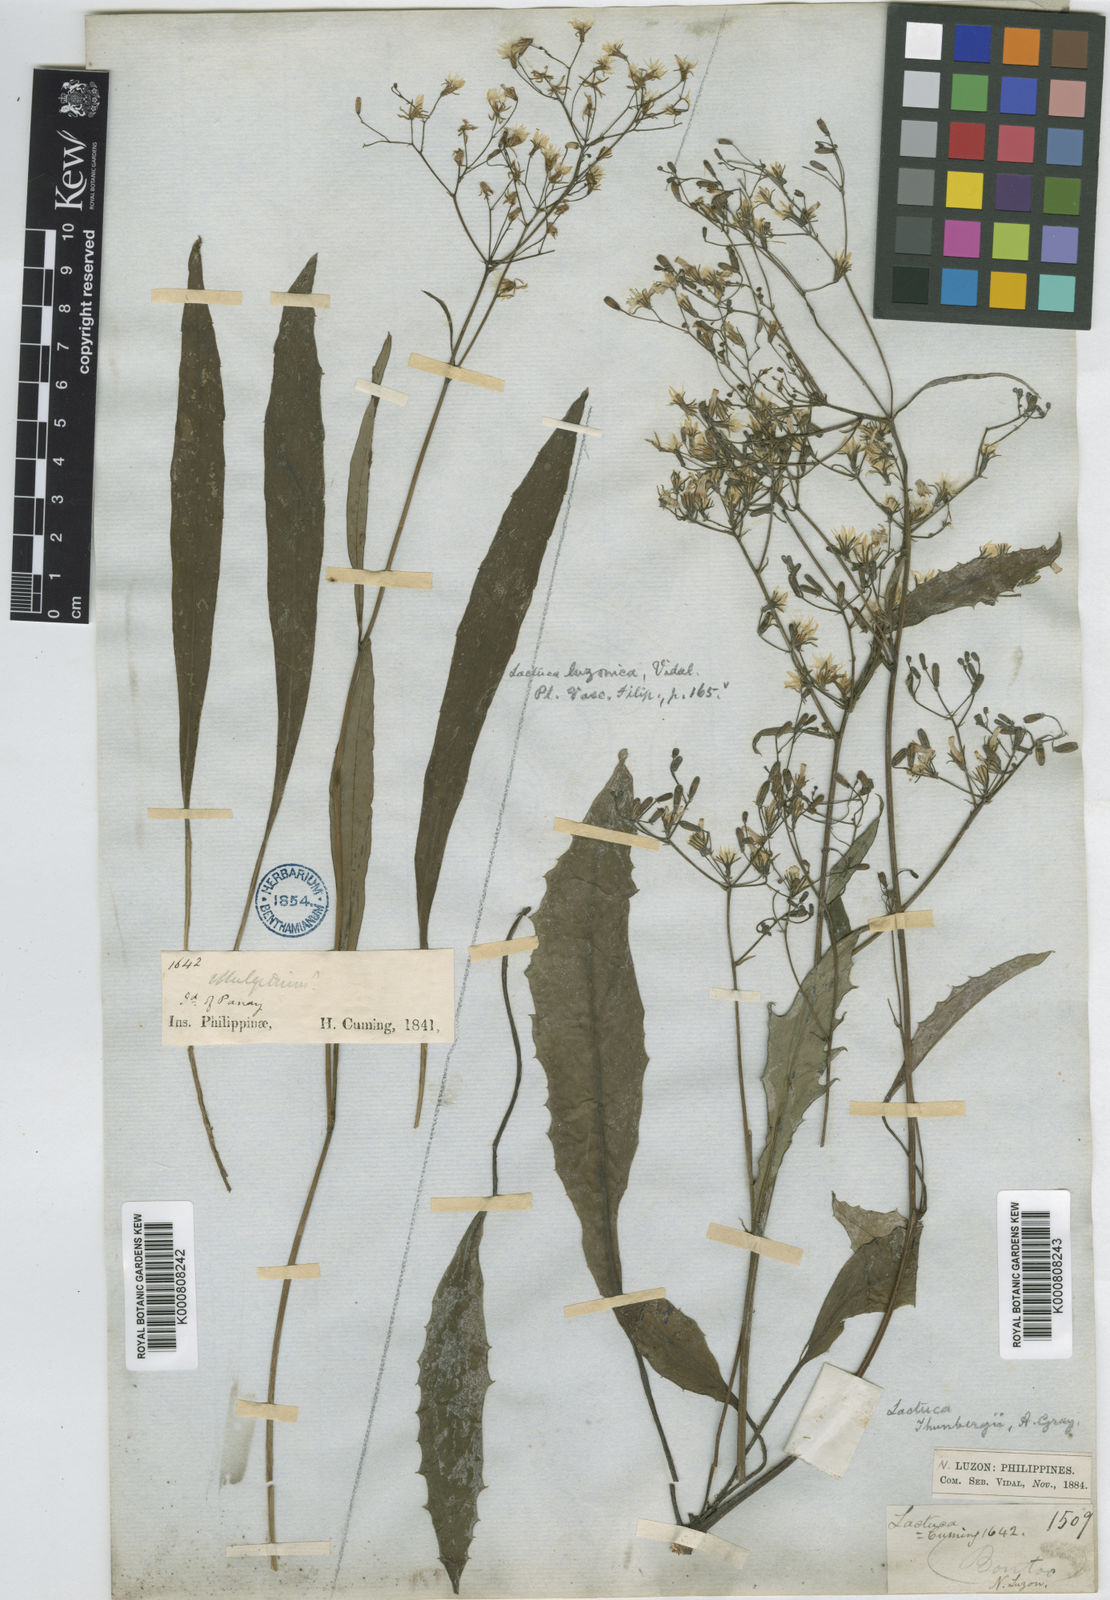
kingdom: Plantae
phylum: Tracheophyta
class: Magnoliopsida
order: Asterales
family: Asteraceae
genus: Ixeridium
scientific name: Ixeridium dentatum
